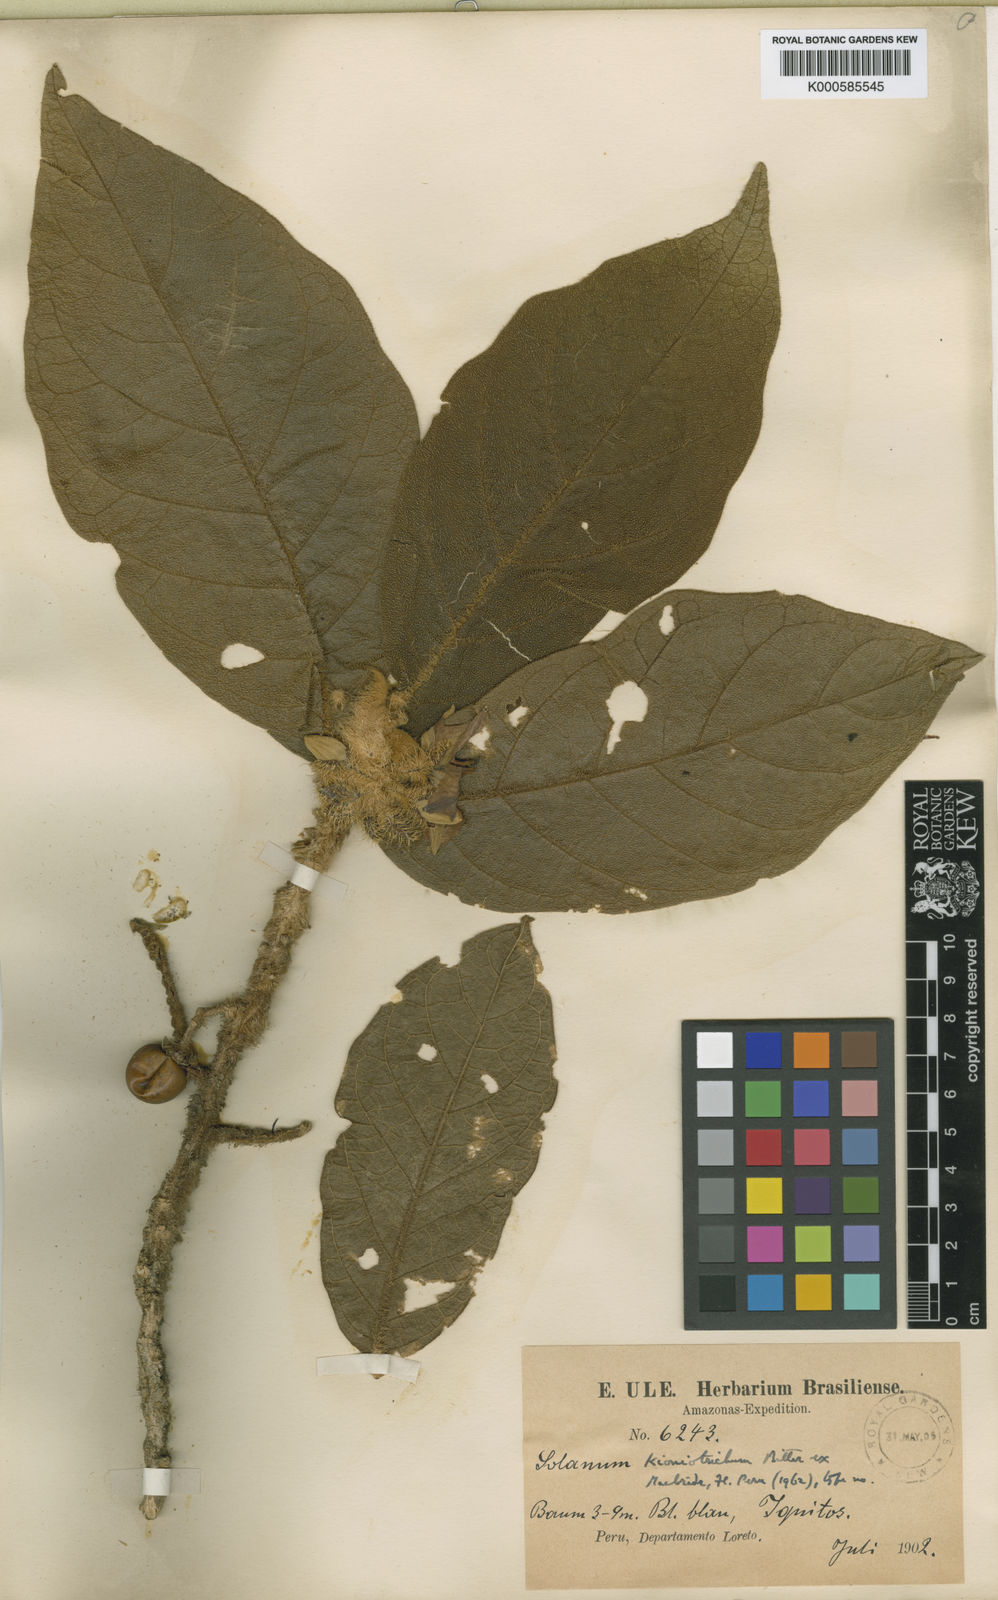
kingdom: Plantae
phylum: Tracheophyta
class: Magnoliopsida
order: Solanales
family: Solanaceae
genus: Solanum
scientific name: Solanum kioniotrichum
